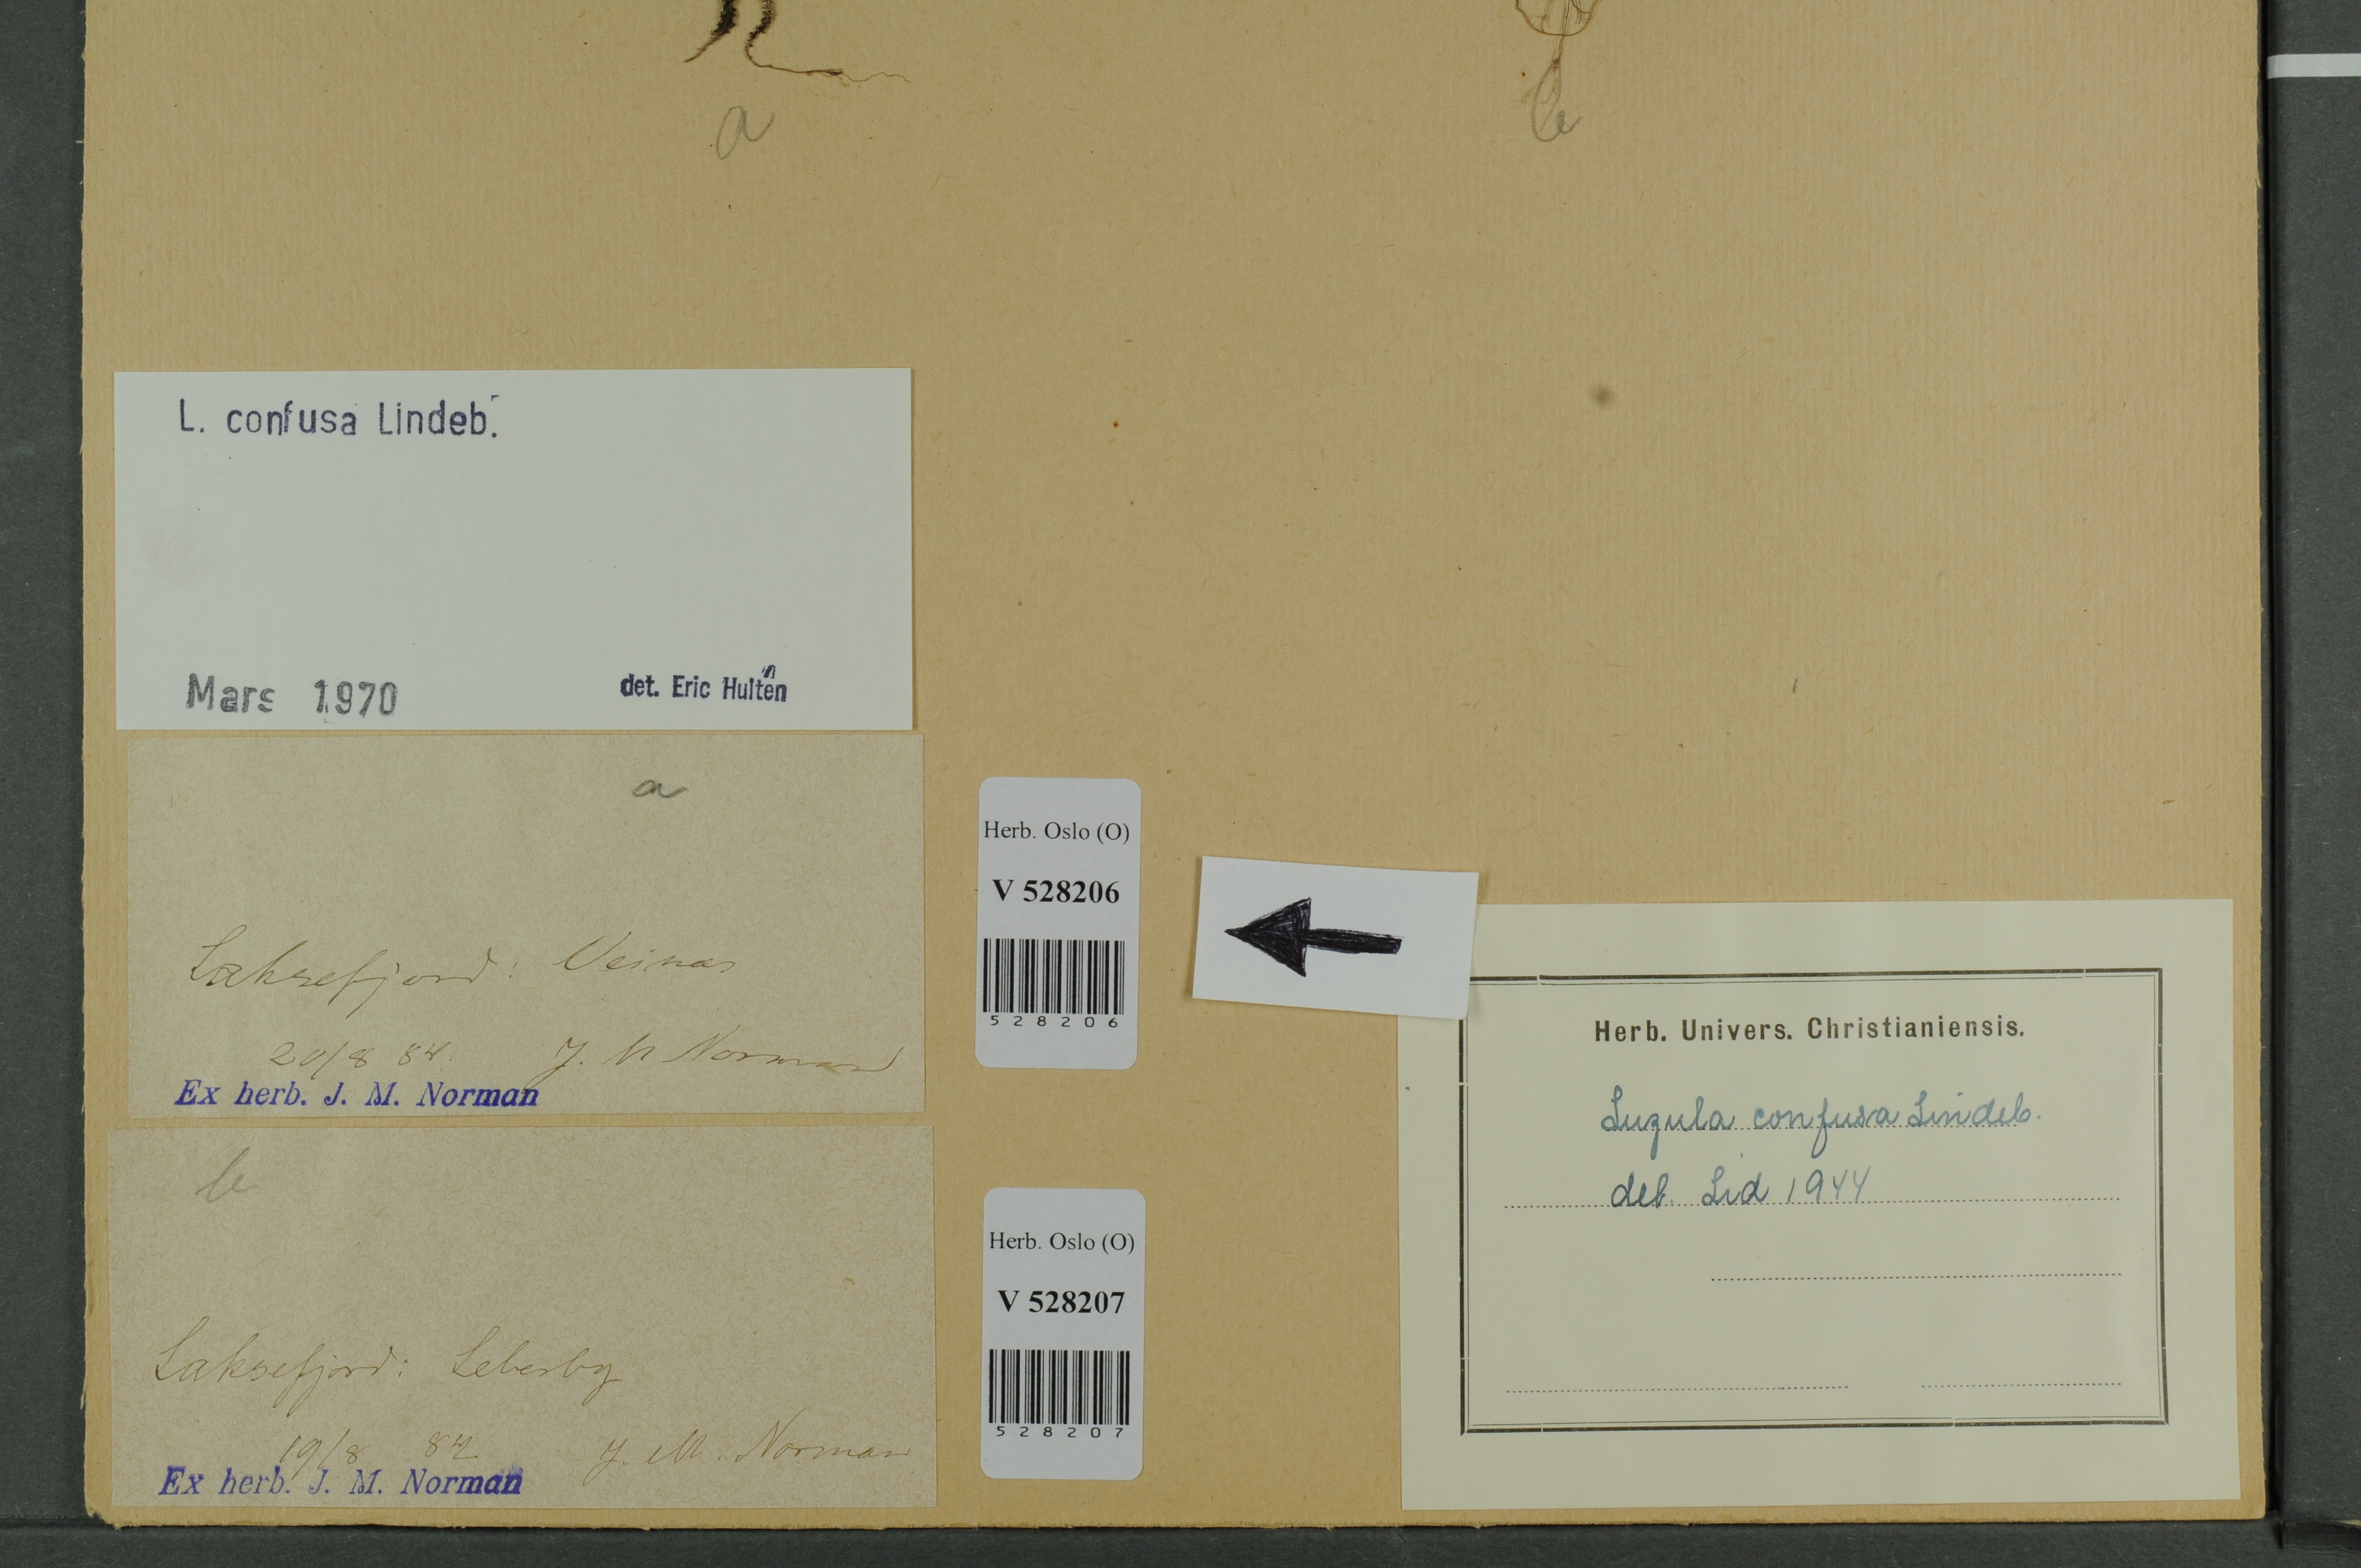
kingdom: Plantae
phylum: Tracheophyta
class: Liliopsida
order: Poales
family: Juncaceae
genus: Luzula
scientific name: Luzula confusa
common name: Northern wood rush
